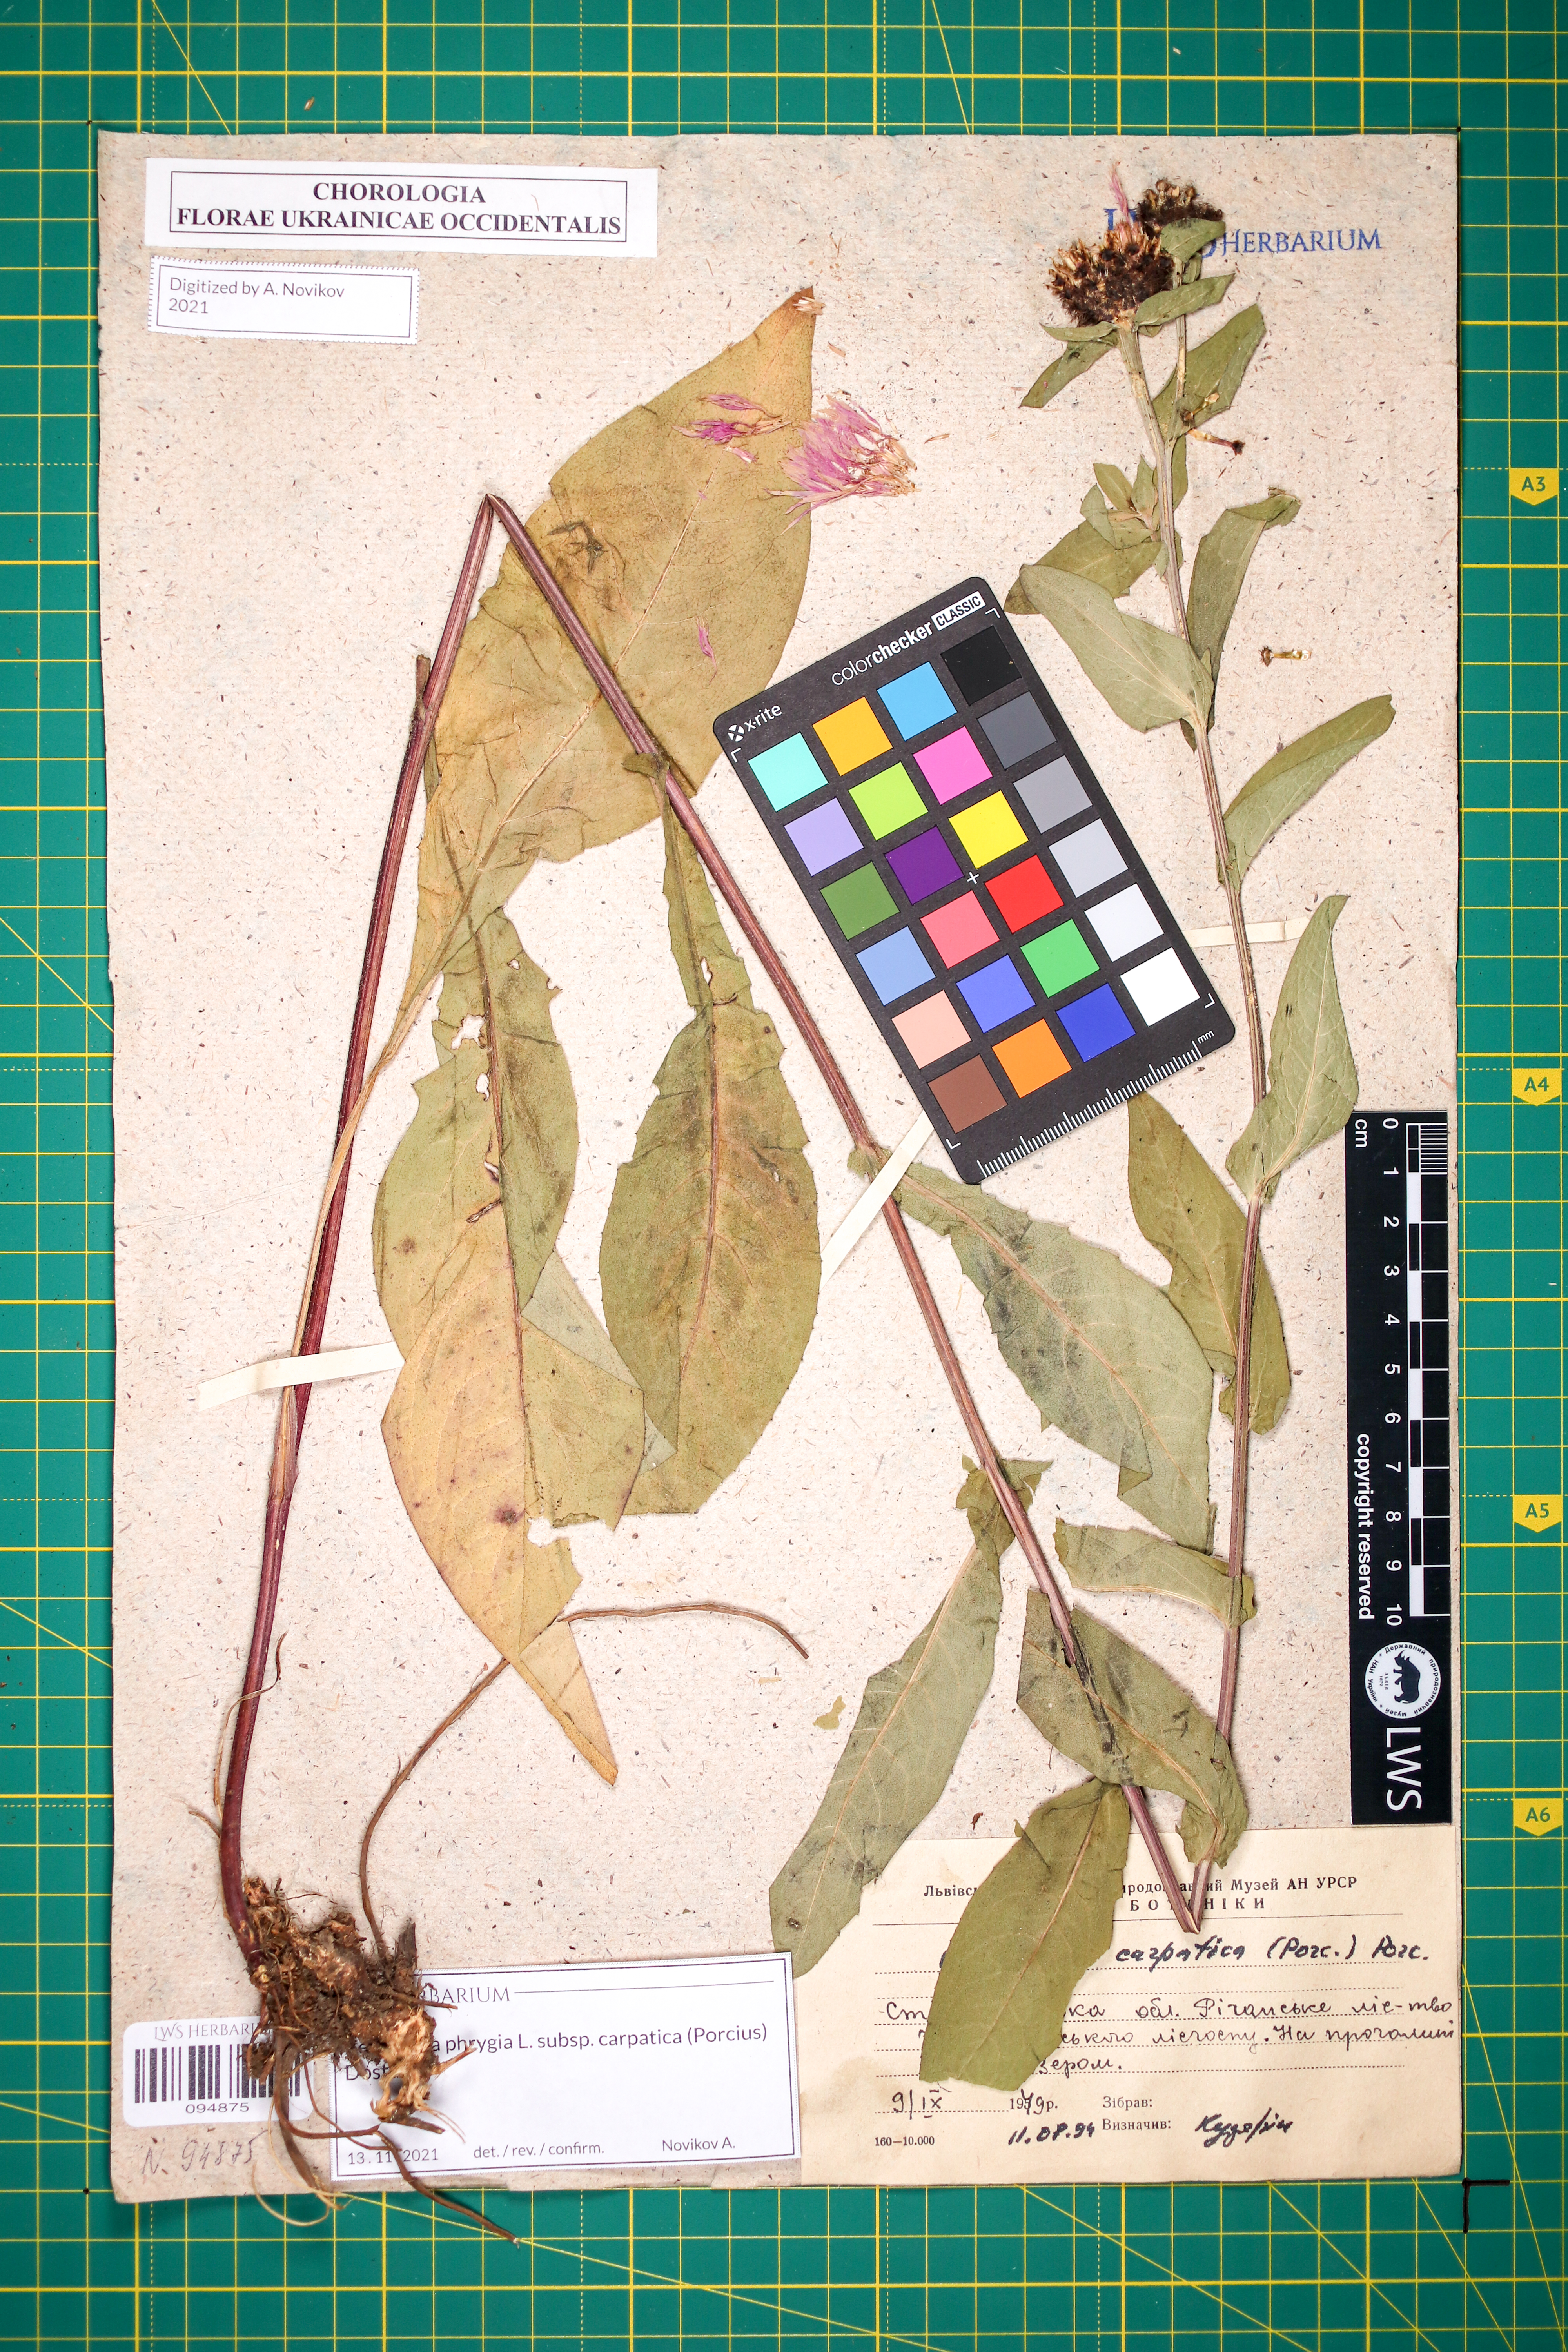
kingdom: Plantae
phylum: Tracheophyta
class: Magnoliopsida
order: Asterales
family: Asteraceae
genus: Centaurea
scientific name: Centaurea phrygia
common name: Wig knapweed
